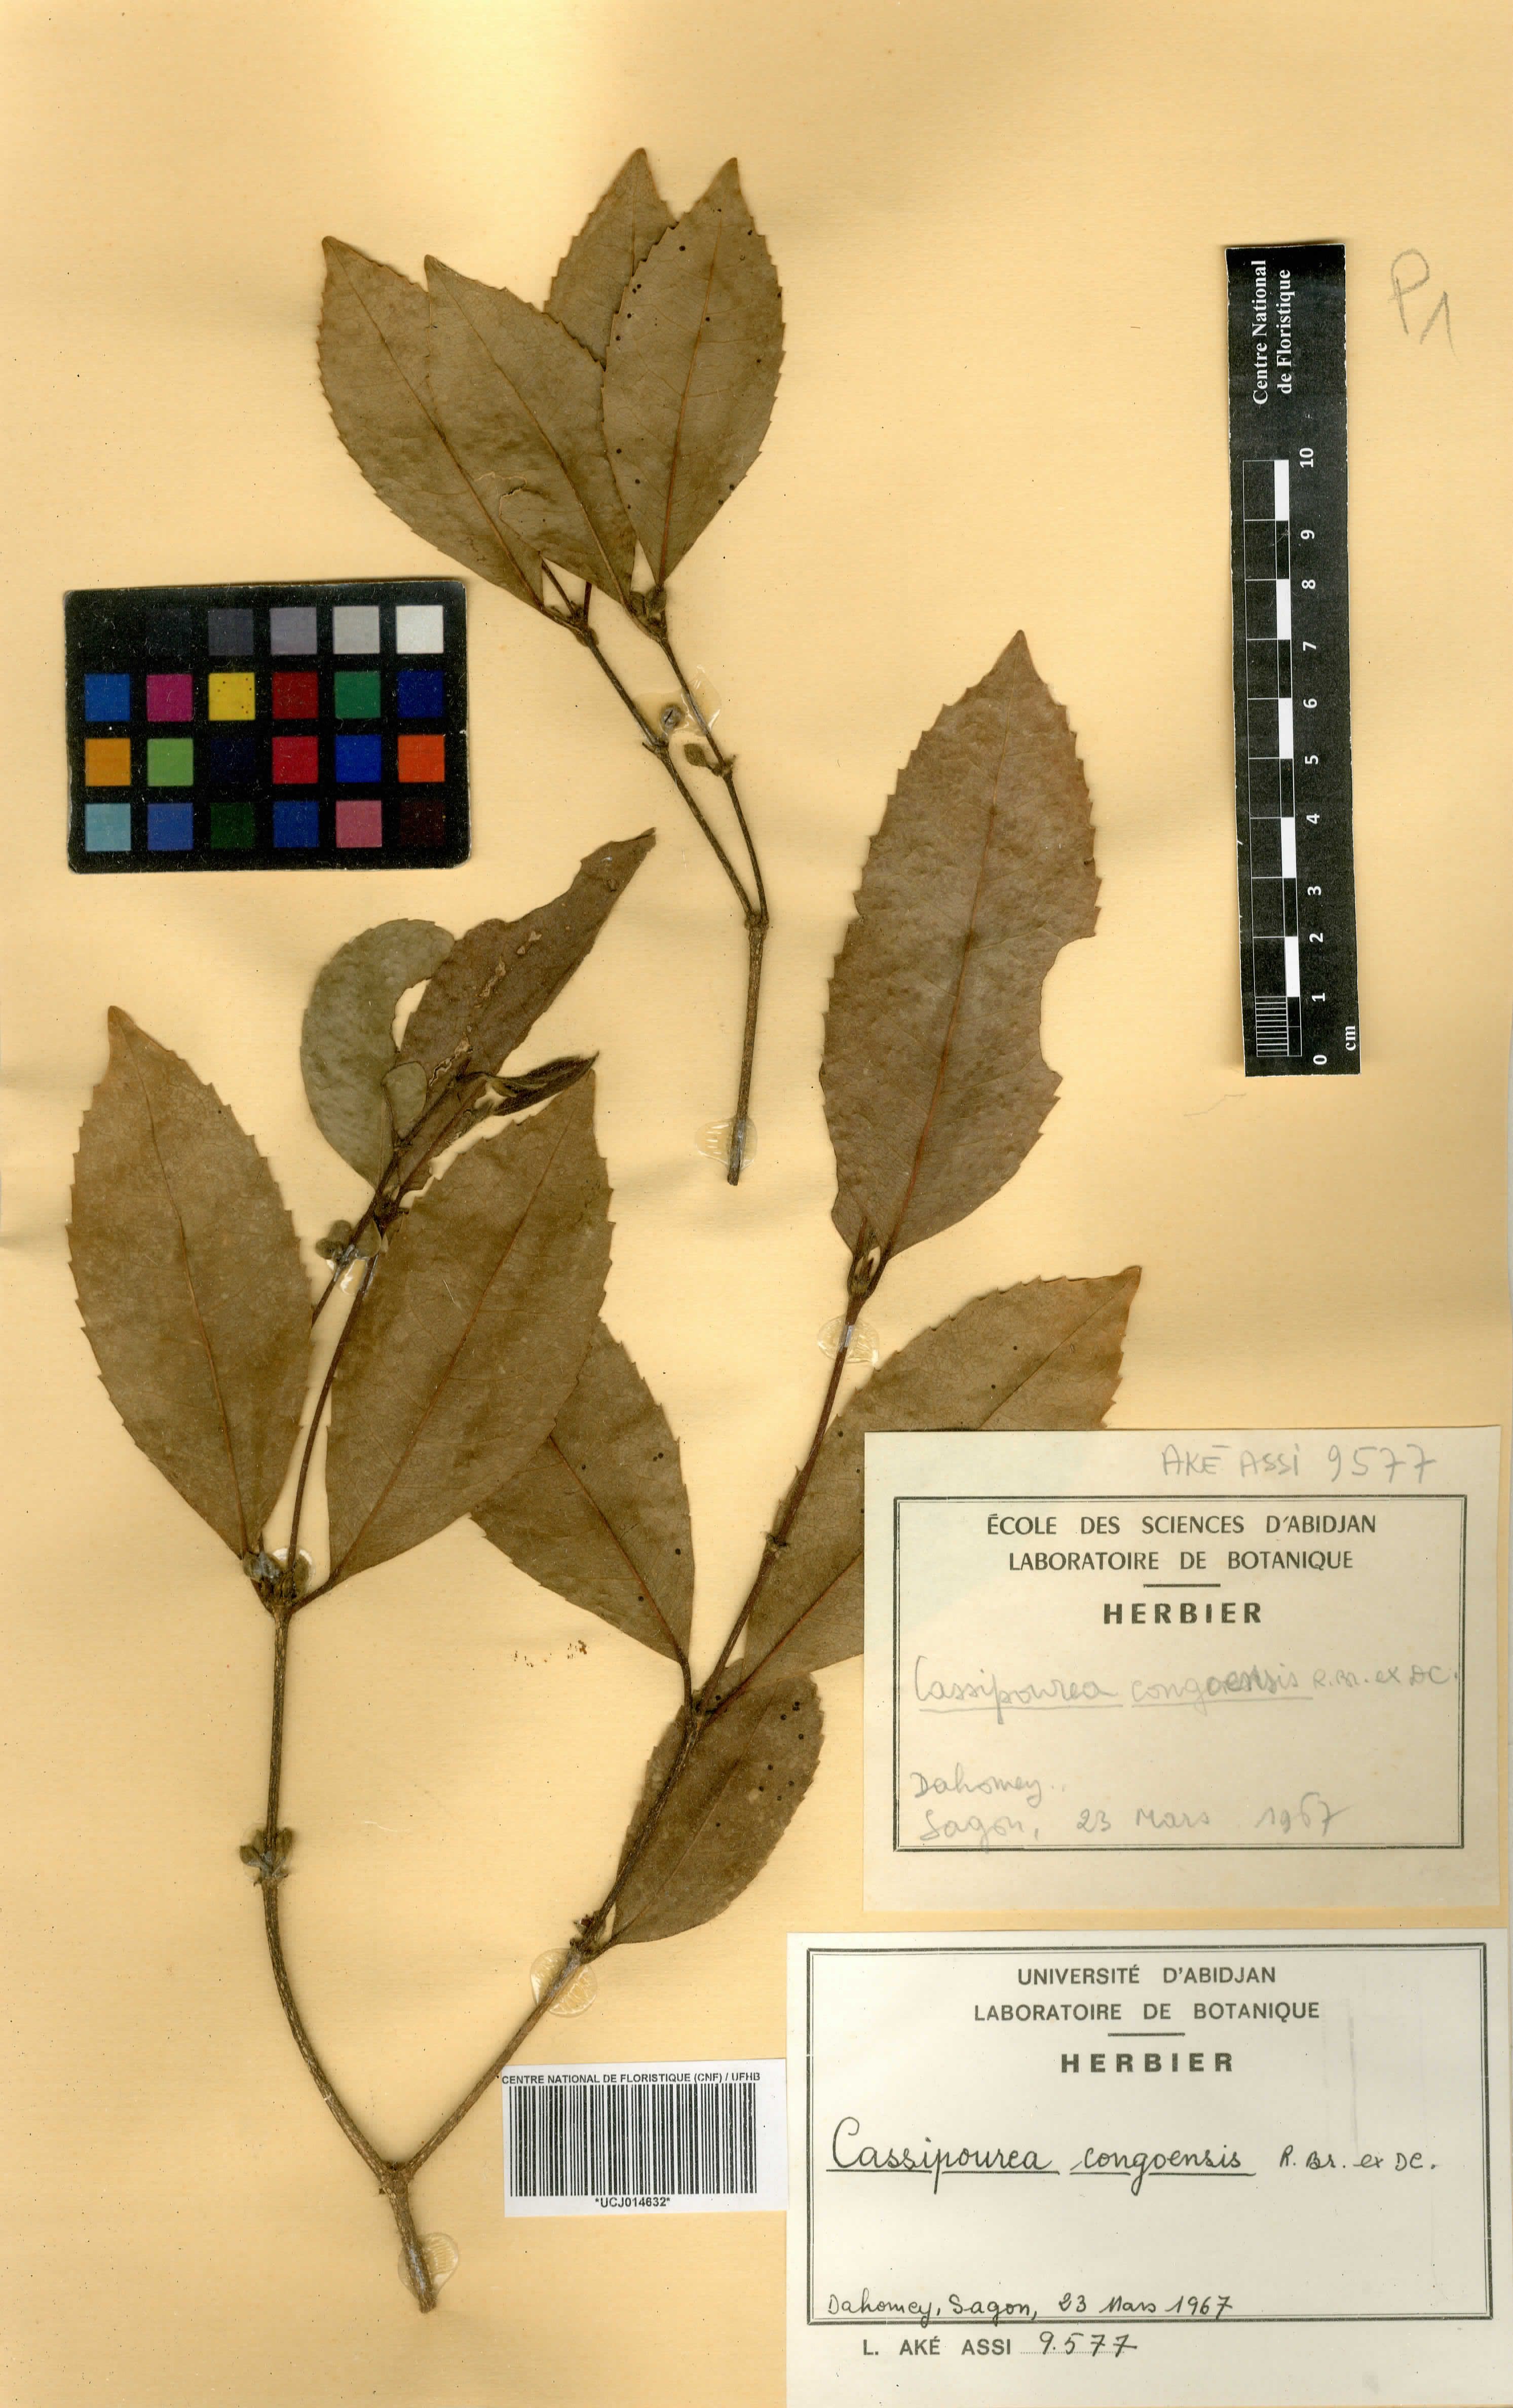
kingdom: Plantae
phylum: Tracheophyta
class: Magnoliopsida
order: Malpighiales
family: Rhizophoraceae
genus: Cassipourea
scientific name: Cassipourea congoensis
